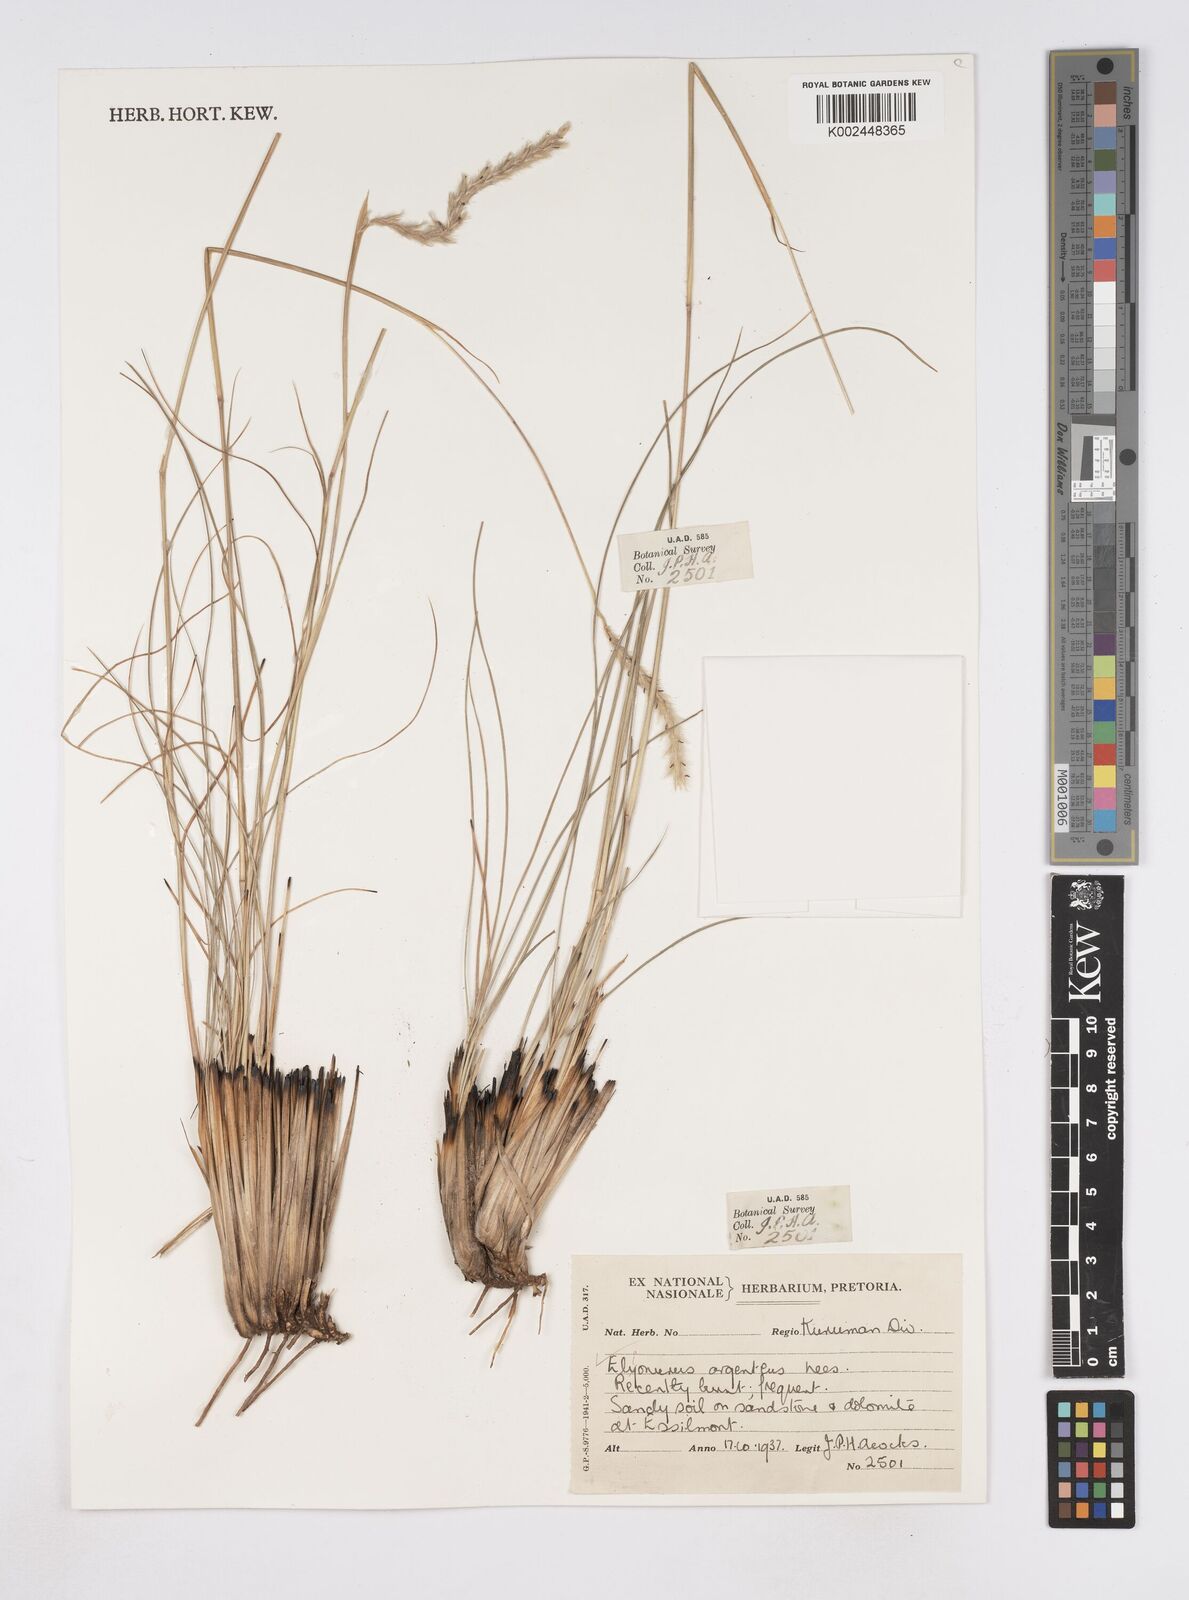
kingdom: Plantae
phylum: Tracheophyta
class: Liliopsida
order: Poales
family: Poaceae
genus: Elionurus
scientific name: Elionurus muticus
